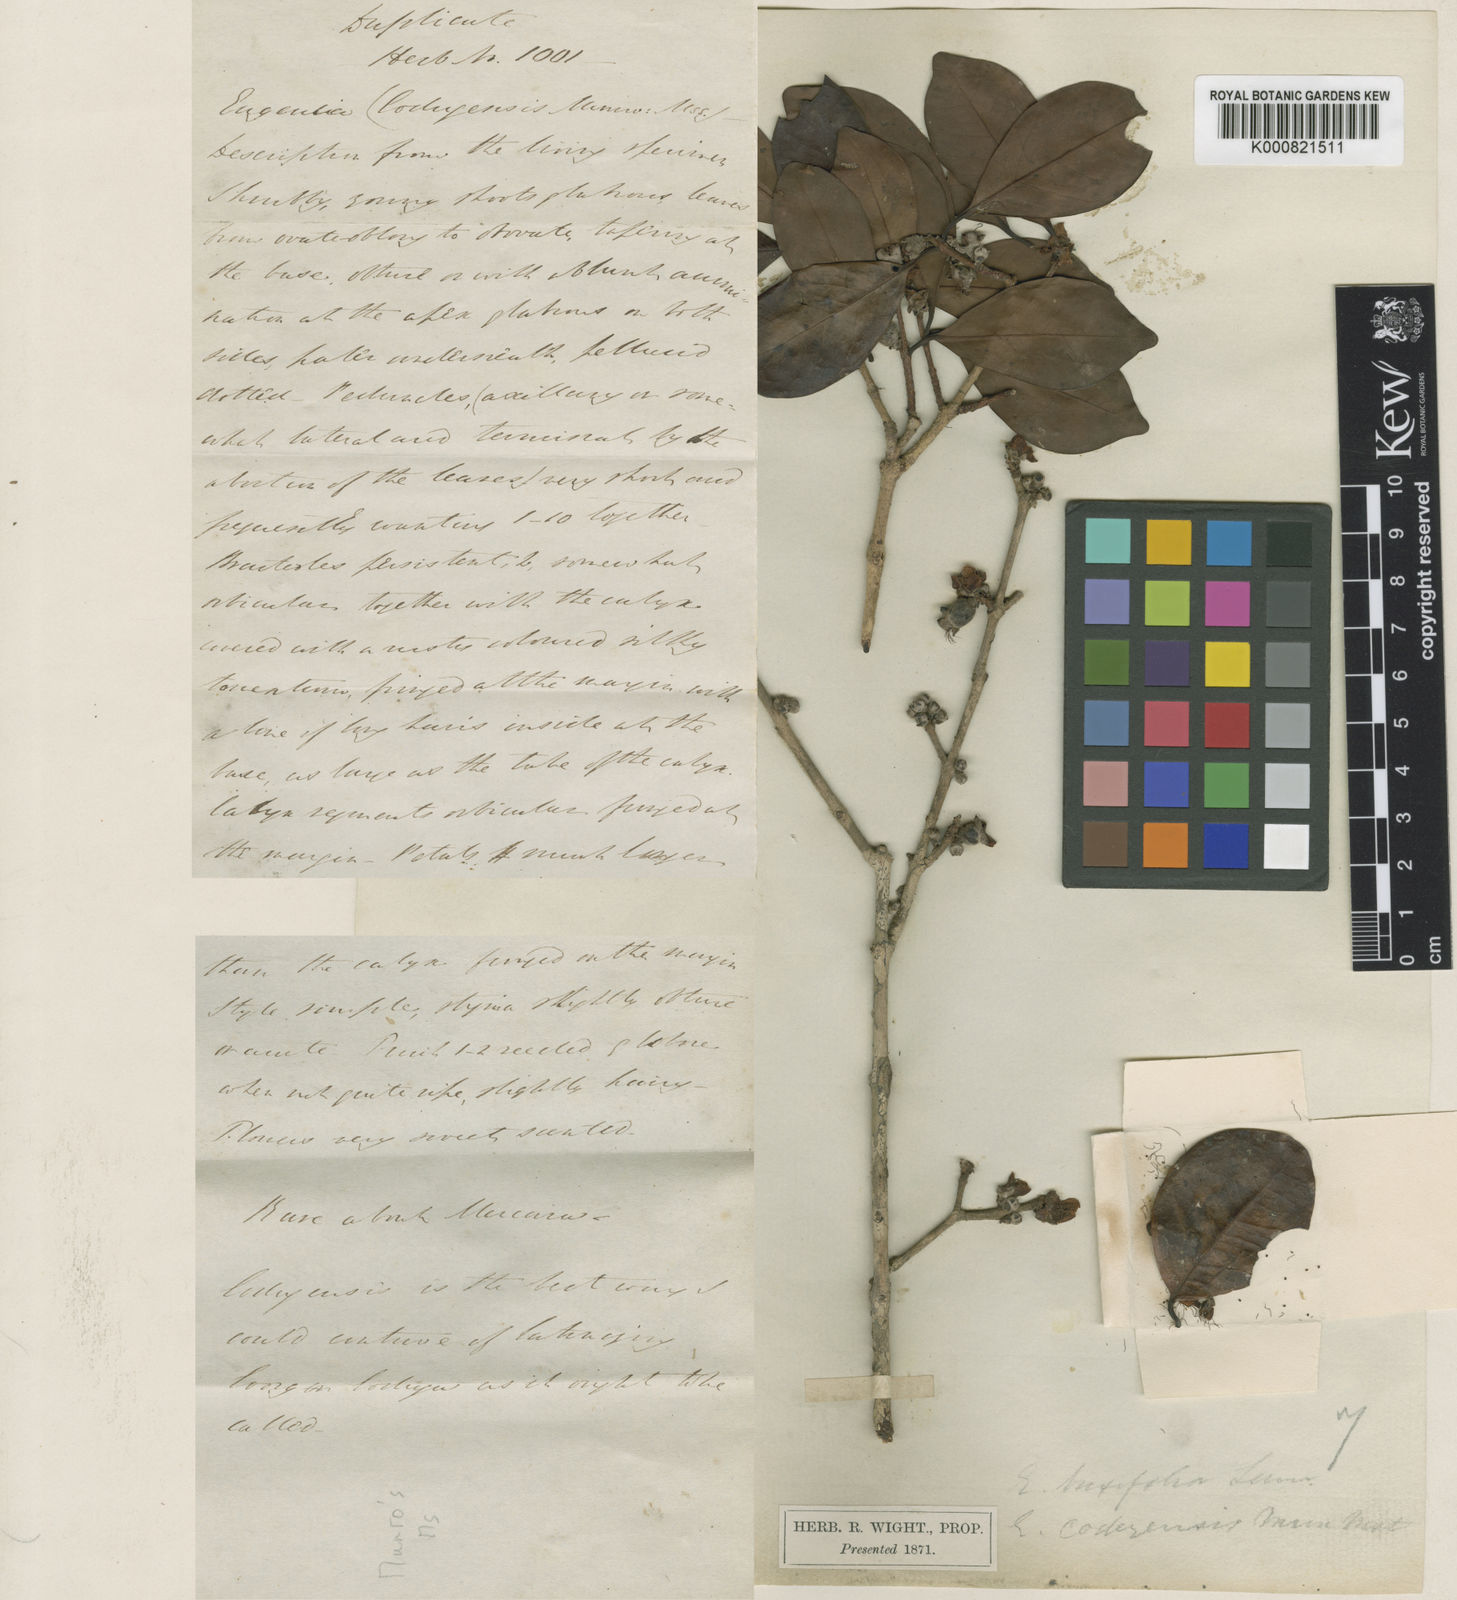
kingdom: Plantae
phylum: Tracheophyta
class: Magnoliopsida
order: Myrtales
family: Myrtaceae
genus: Eugenia
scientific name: Eugenia codyensis
